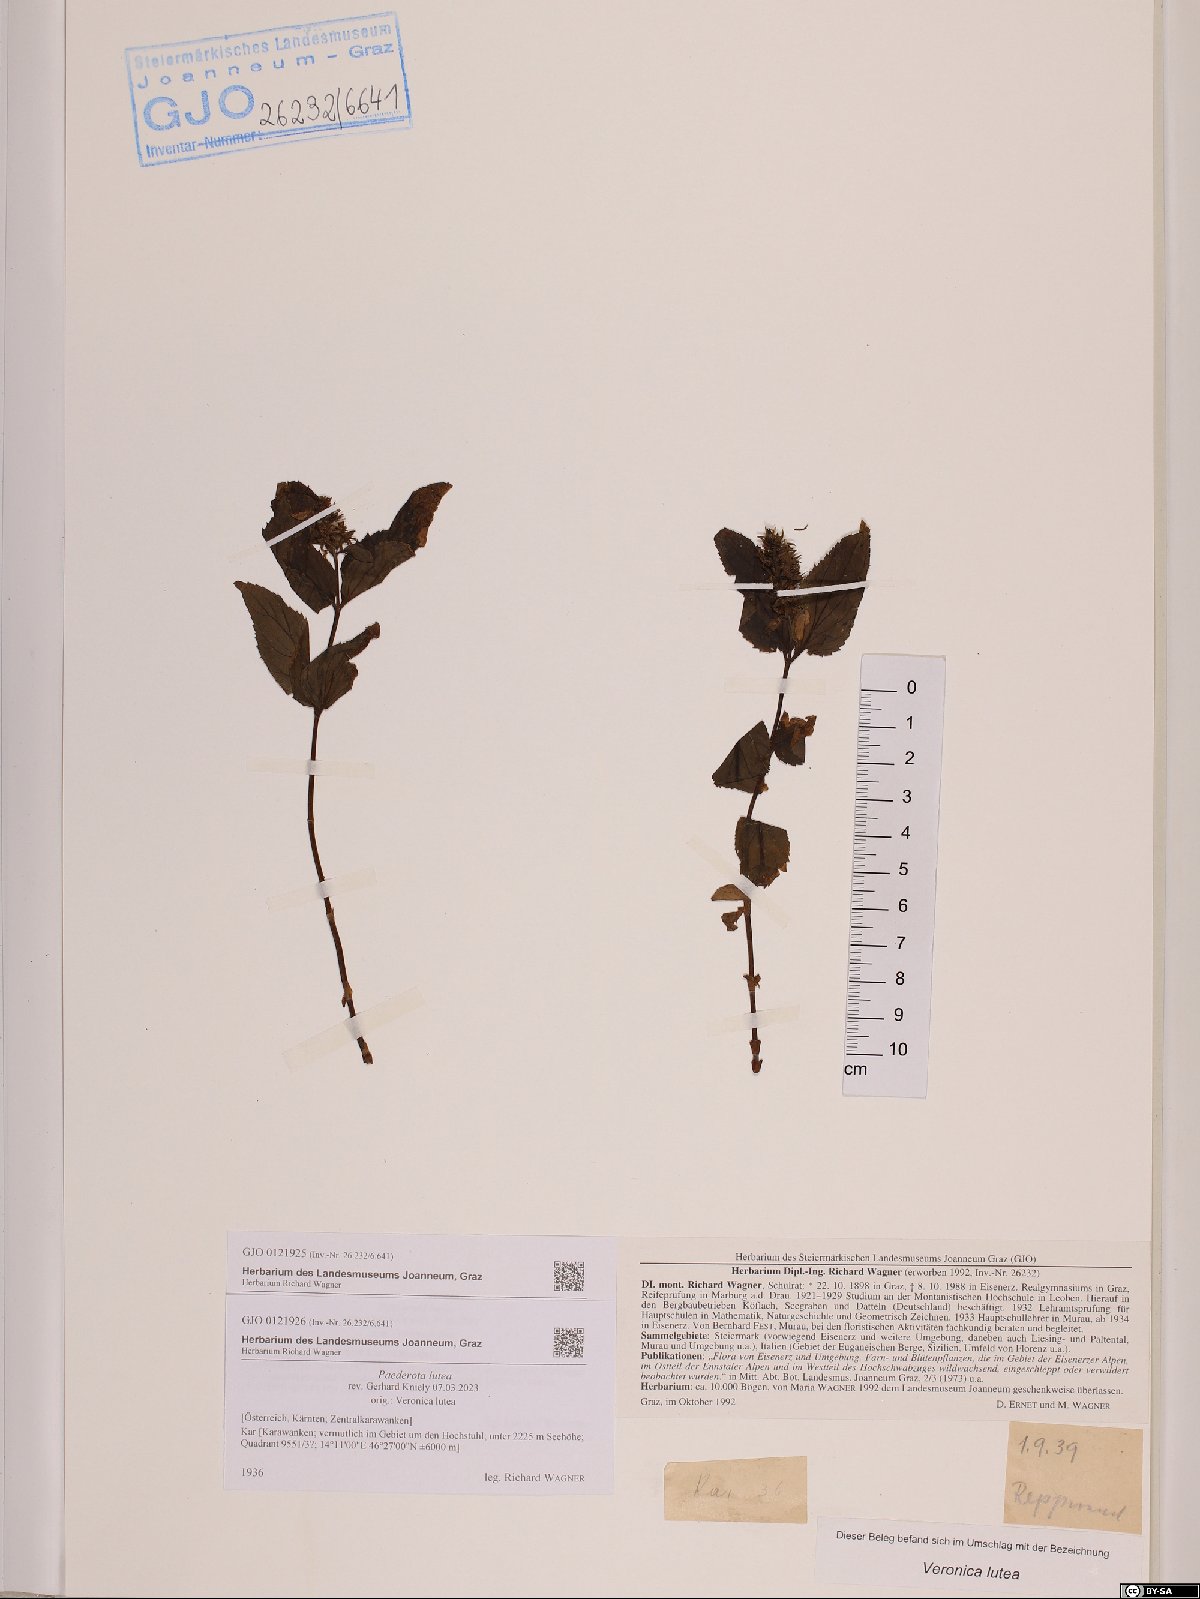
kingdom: Plantae
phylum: Tracheophyta
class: Magnoliopsida
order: Lamiales
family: Plantaginaceae
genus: Paederota
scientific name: Paederota lutea
